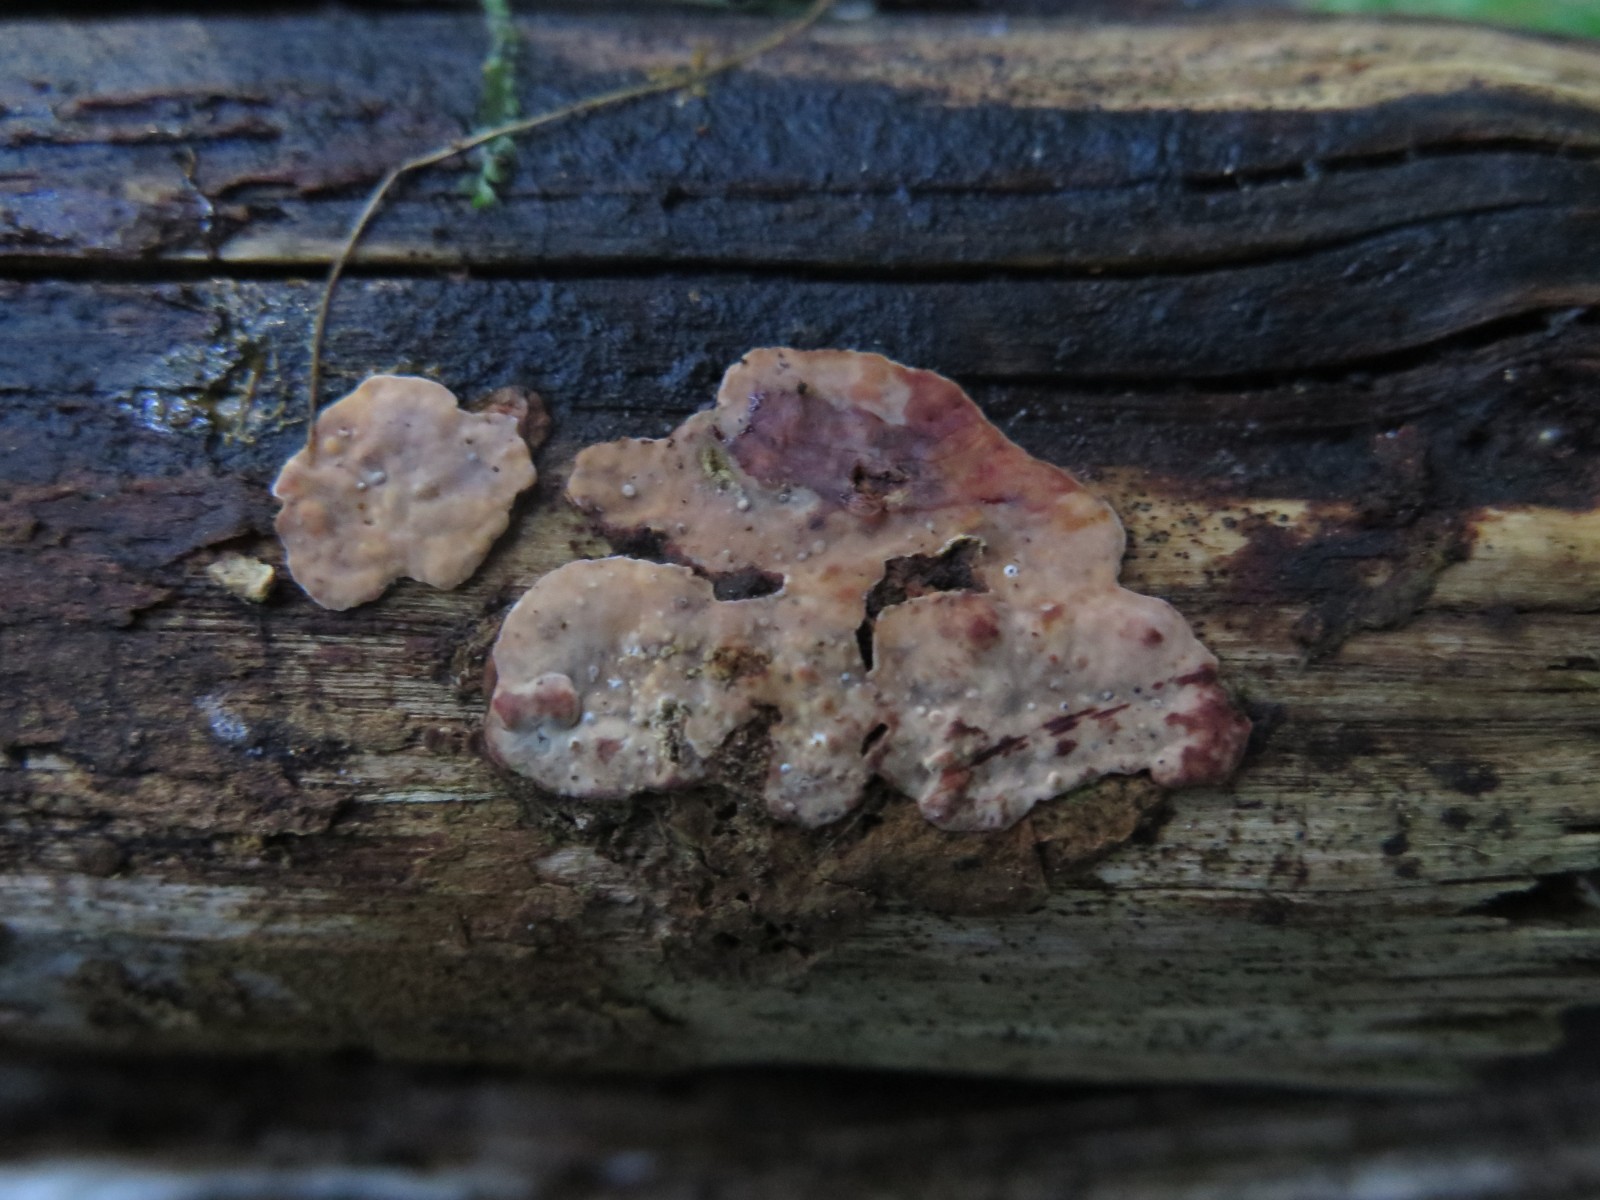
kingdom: Fungi
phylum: Basidiomycota
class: Agaricomycetes
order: Russulales
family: Stereaceae
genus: Stereum
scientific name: Stereum sanguinolentum
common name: blødende lædersvamp
